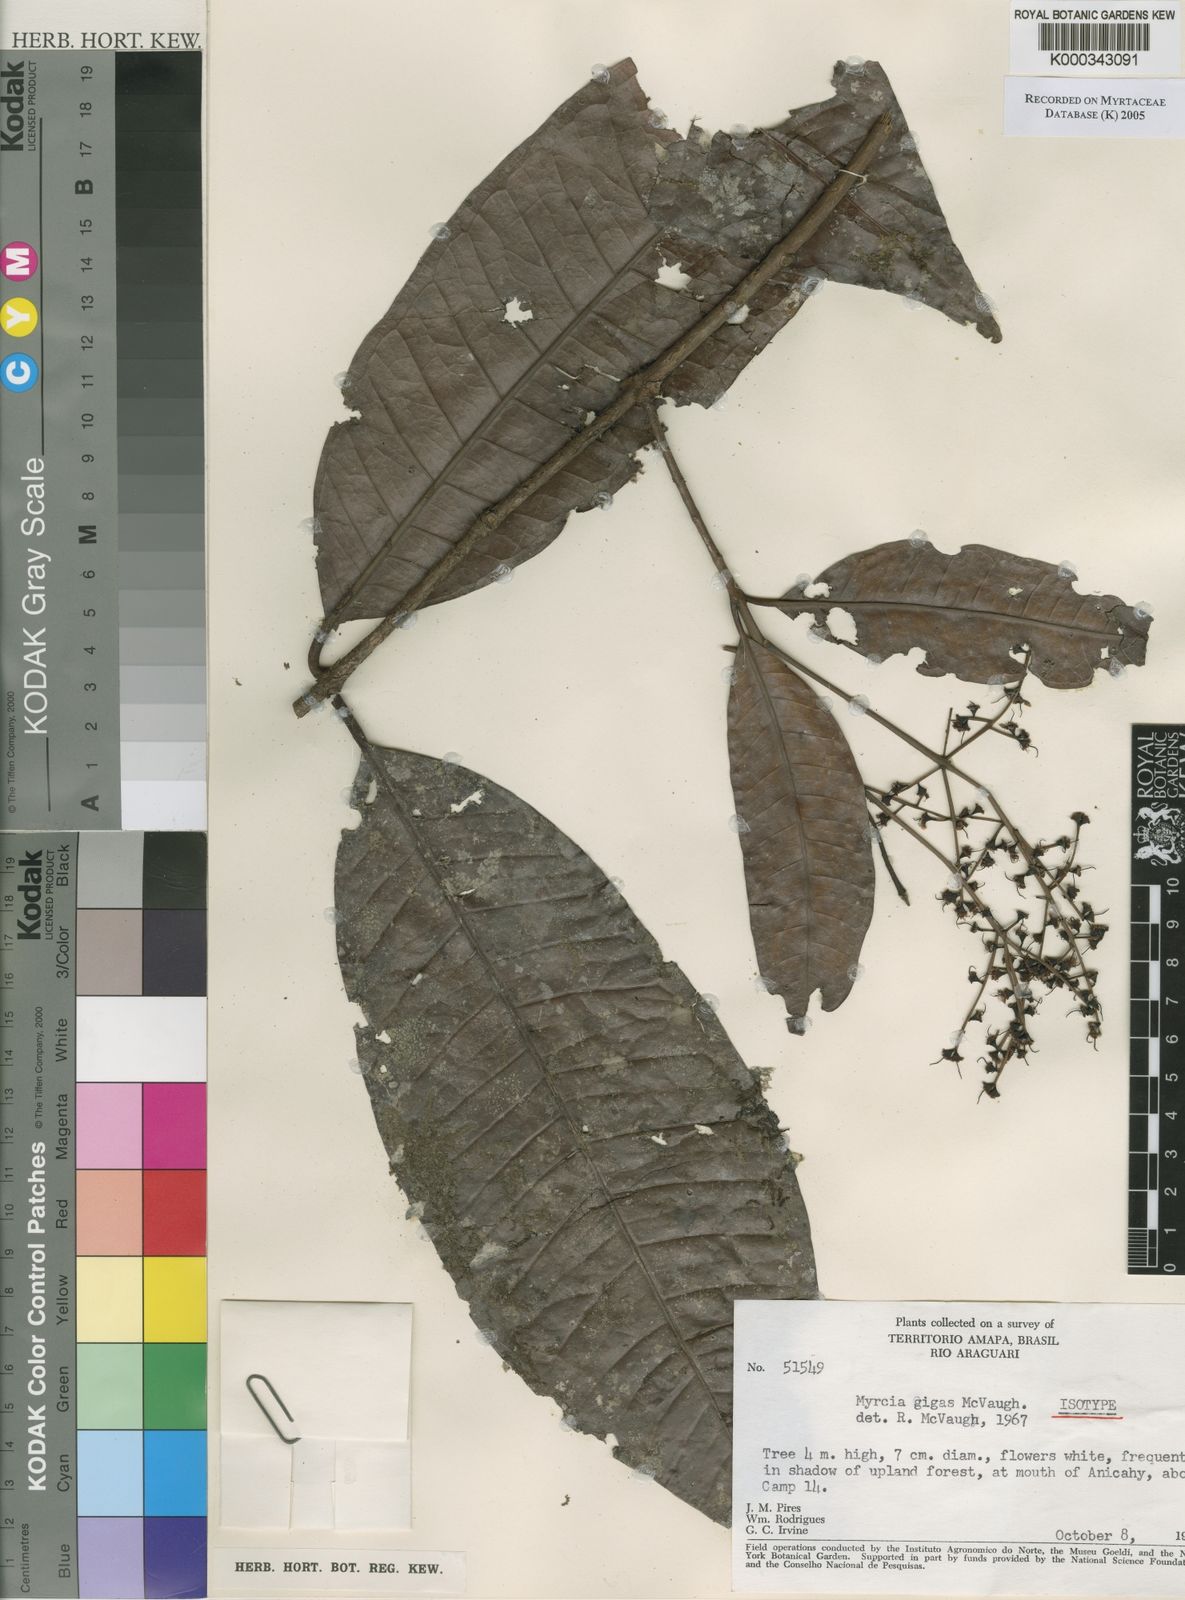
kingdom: Plantae
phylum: Tracheophyta
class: Magnoliopsida
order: Myrtales
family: Myrtaceae
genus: Myrcia
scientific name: Myrcia gigas
